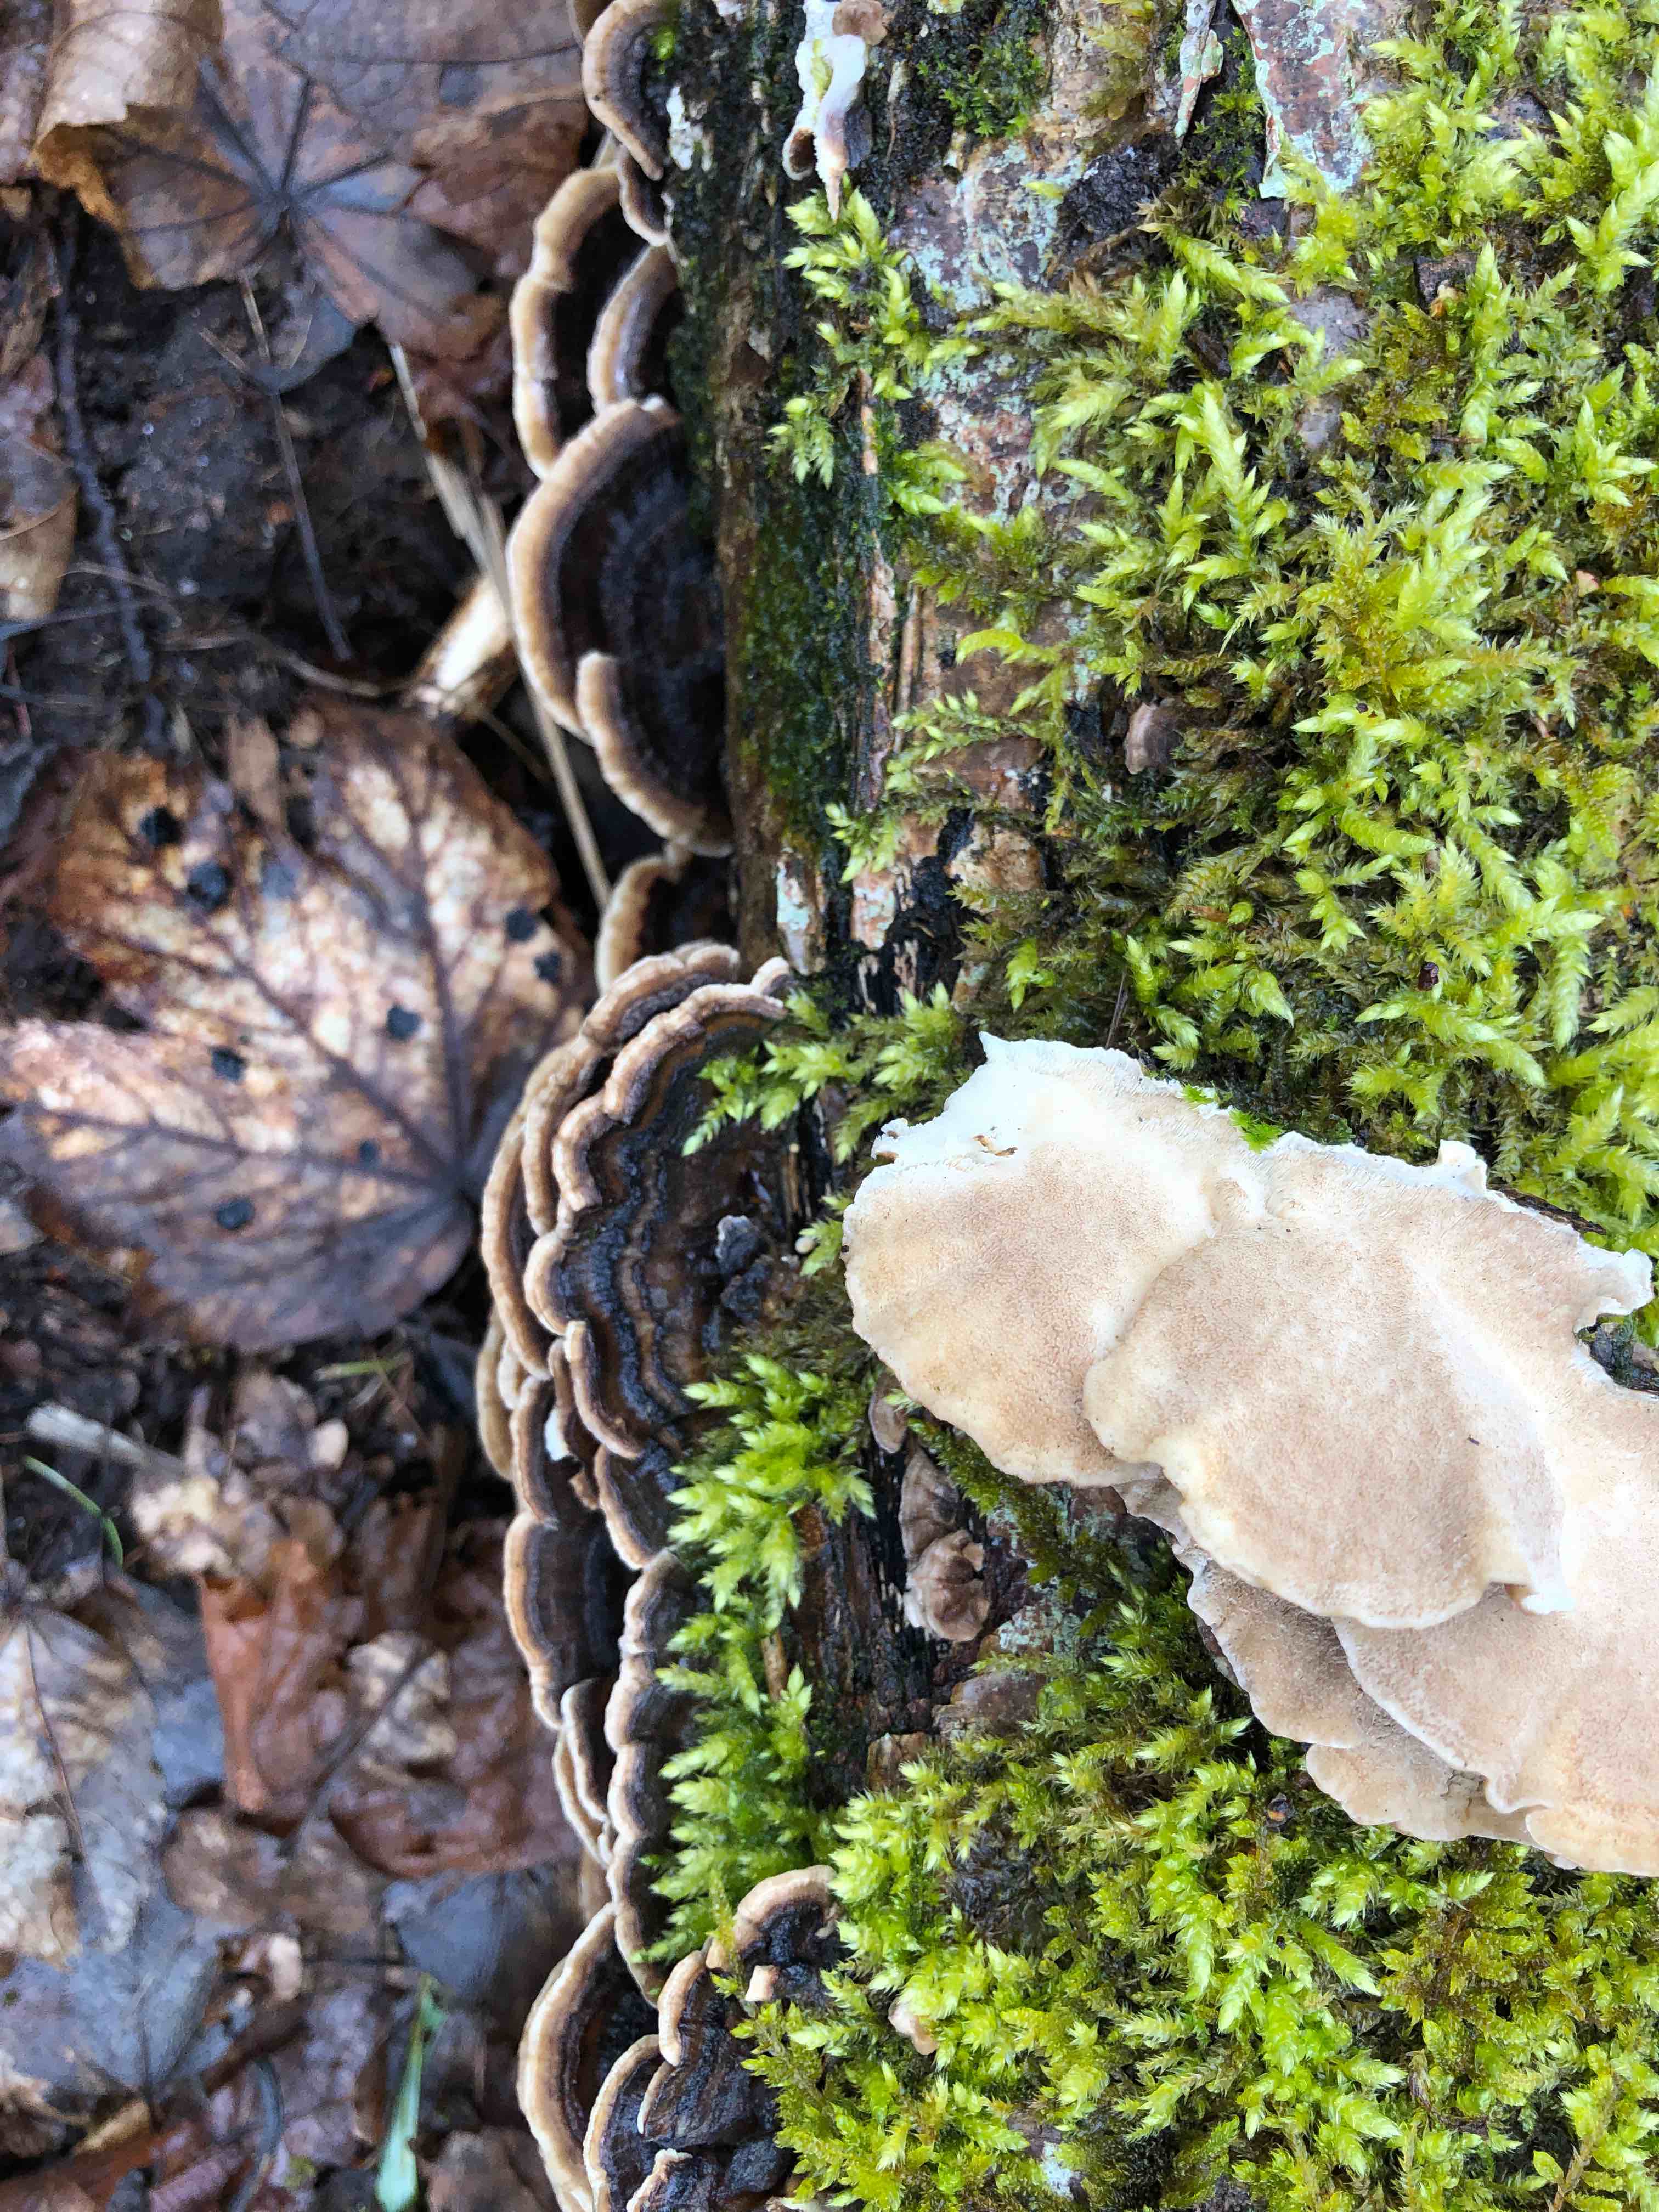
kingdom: Fungi
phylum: Basidiomycota
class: Agaricomycetes
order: Polyporales
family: Polyporaceae
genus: Trametes
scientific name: Trametes versicolor
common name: broget læderporesvamp
